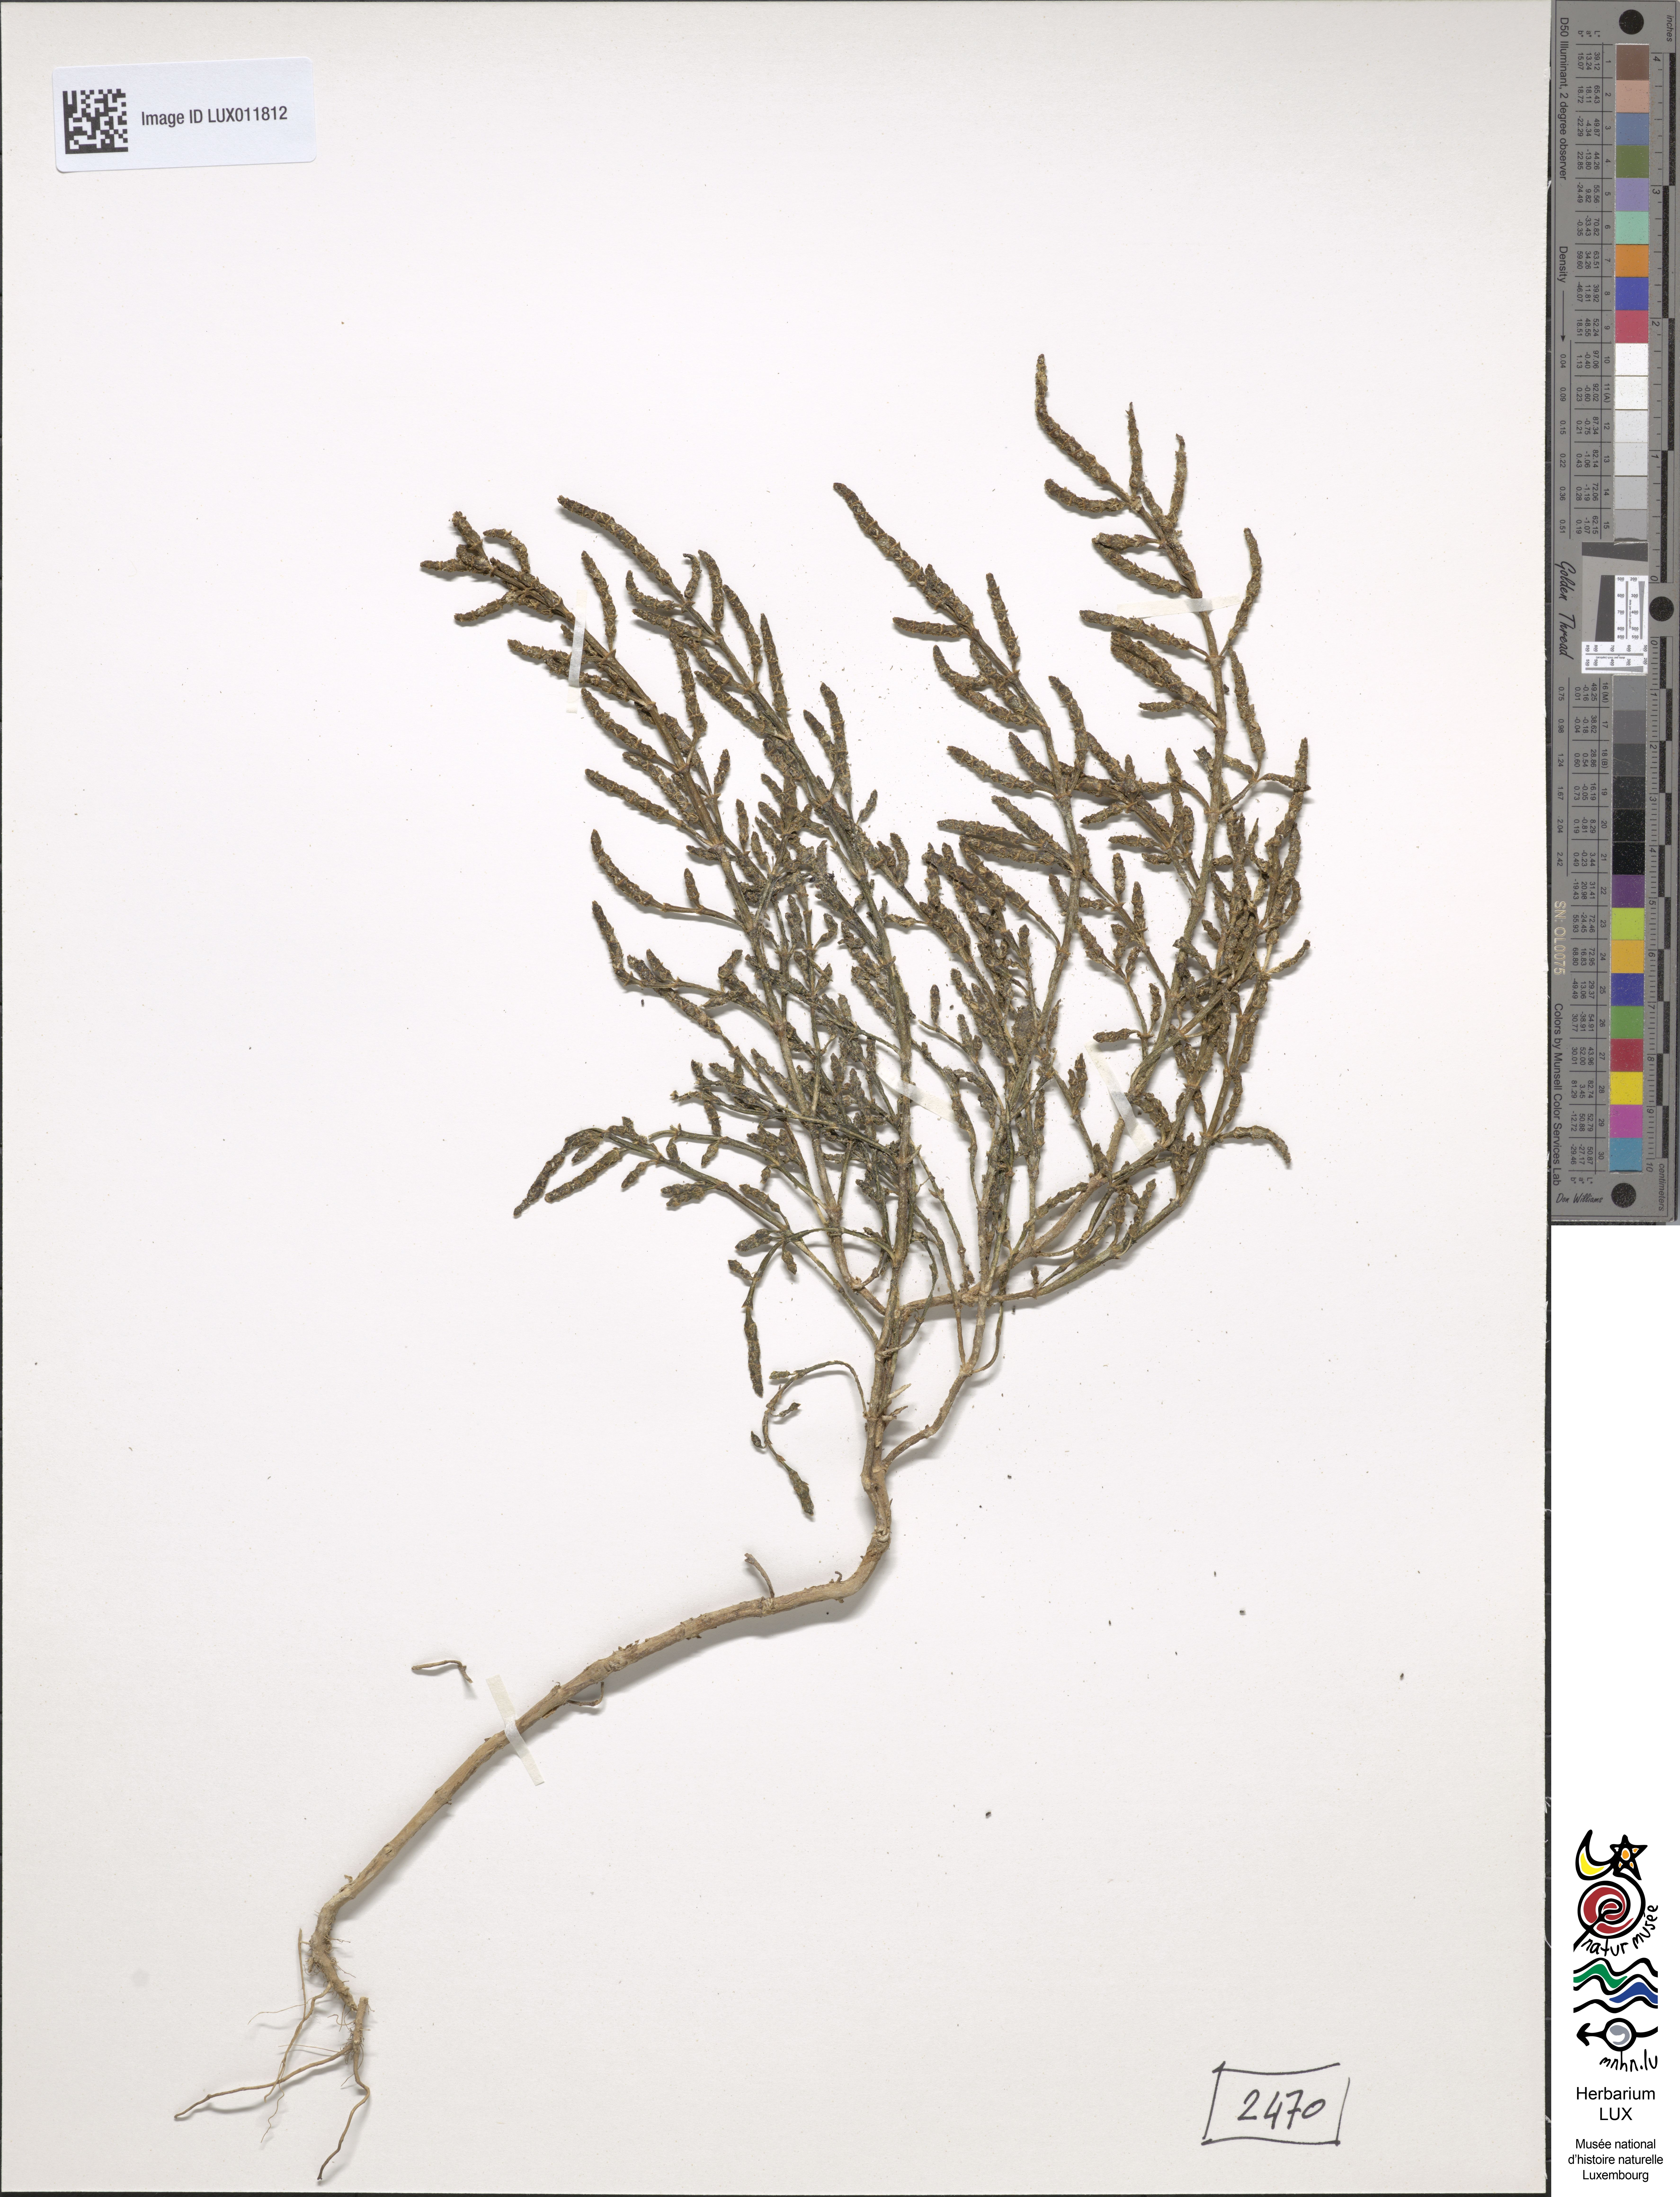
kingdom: Plantae
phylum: Tracheophyta
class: Magnoliopsida
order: Caryophyllales
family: Amaranthaceae
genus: Salicornia
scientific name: Salicornia europaea
